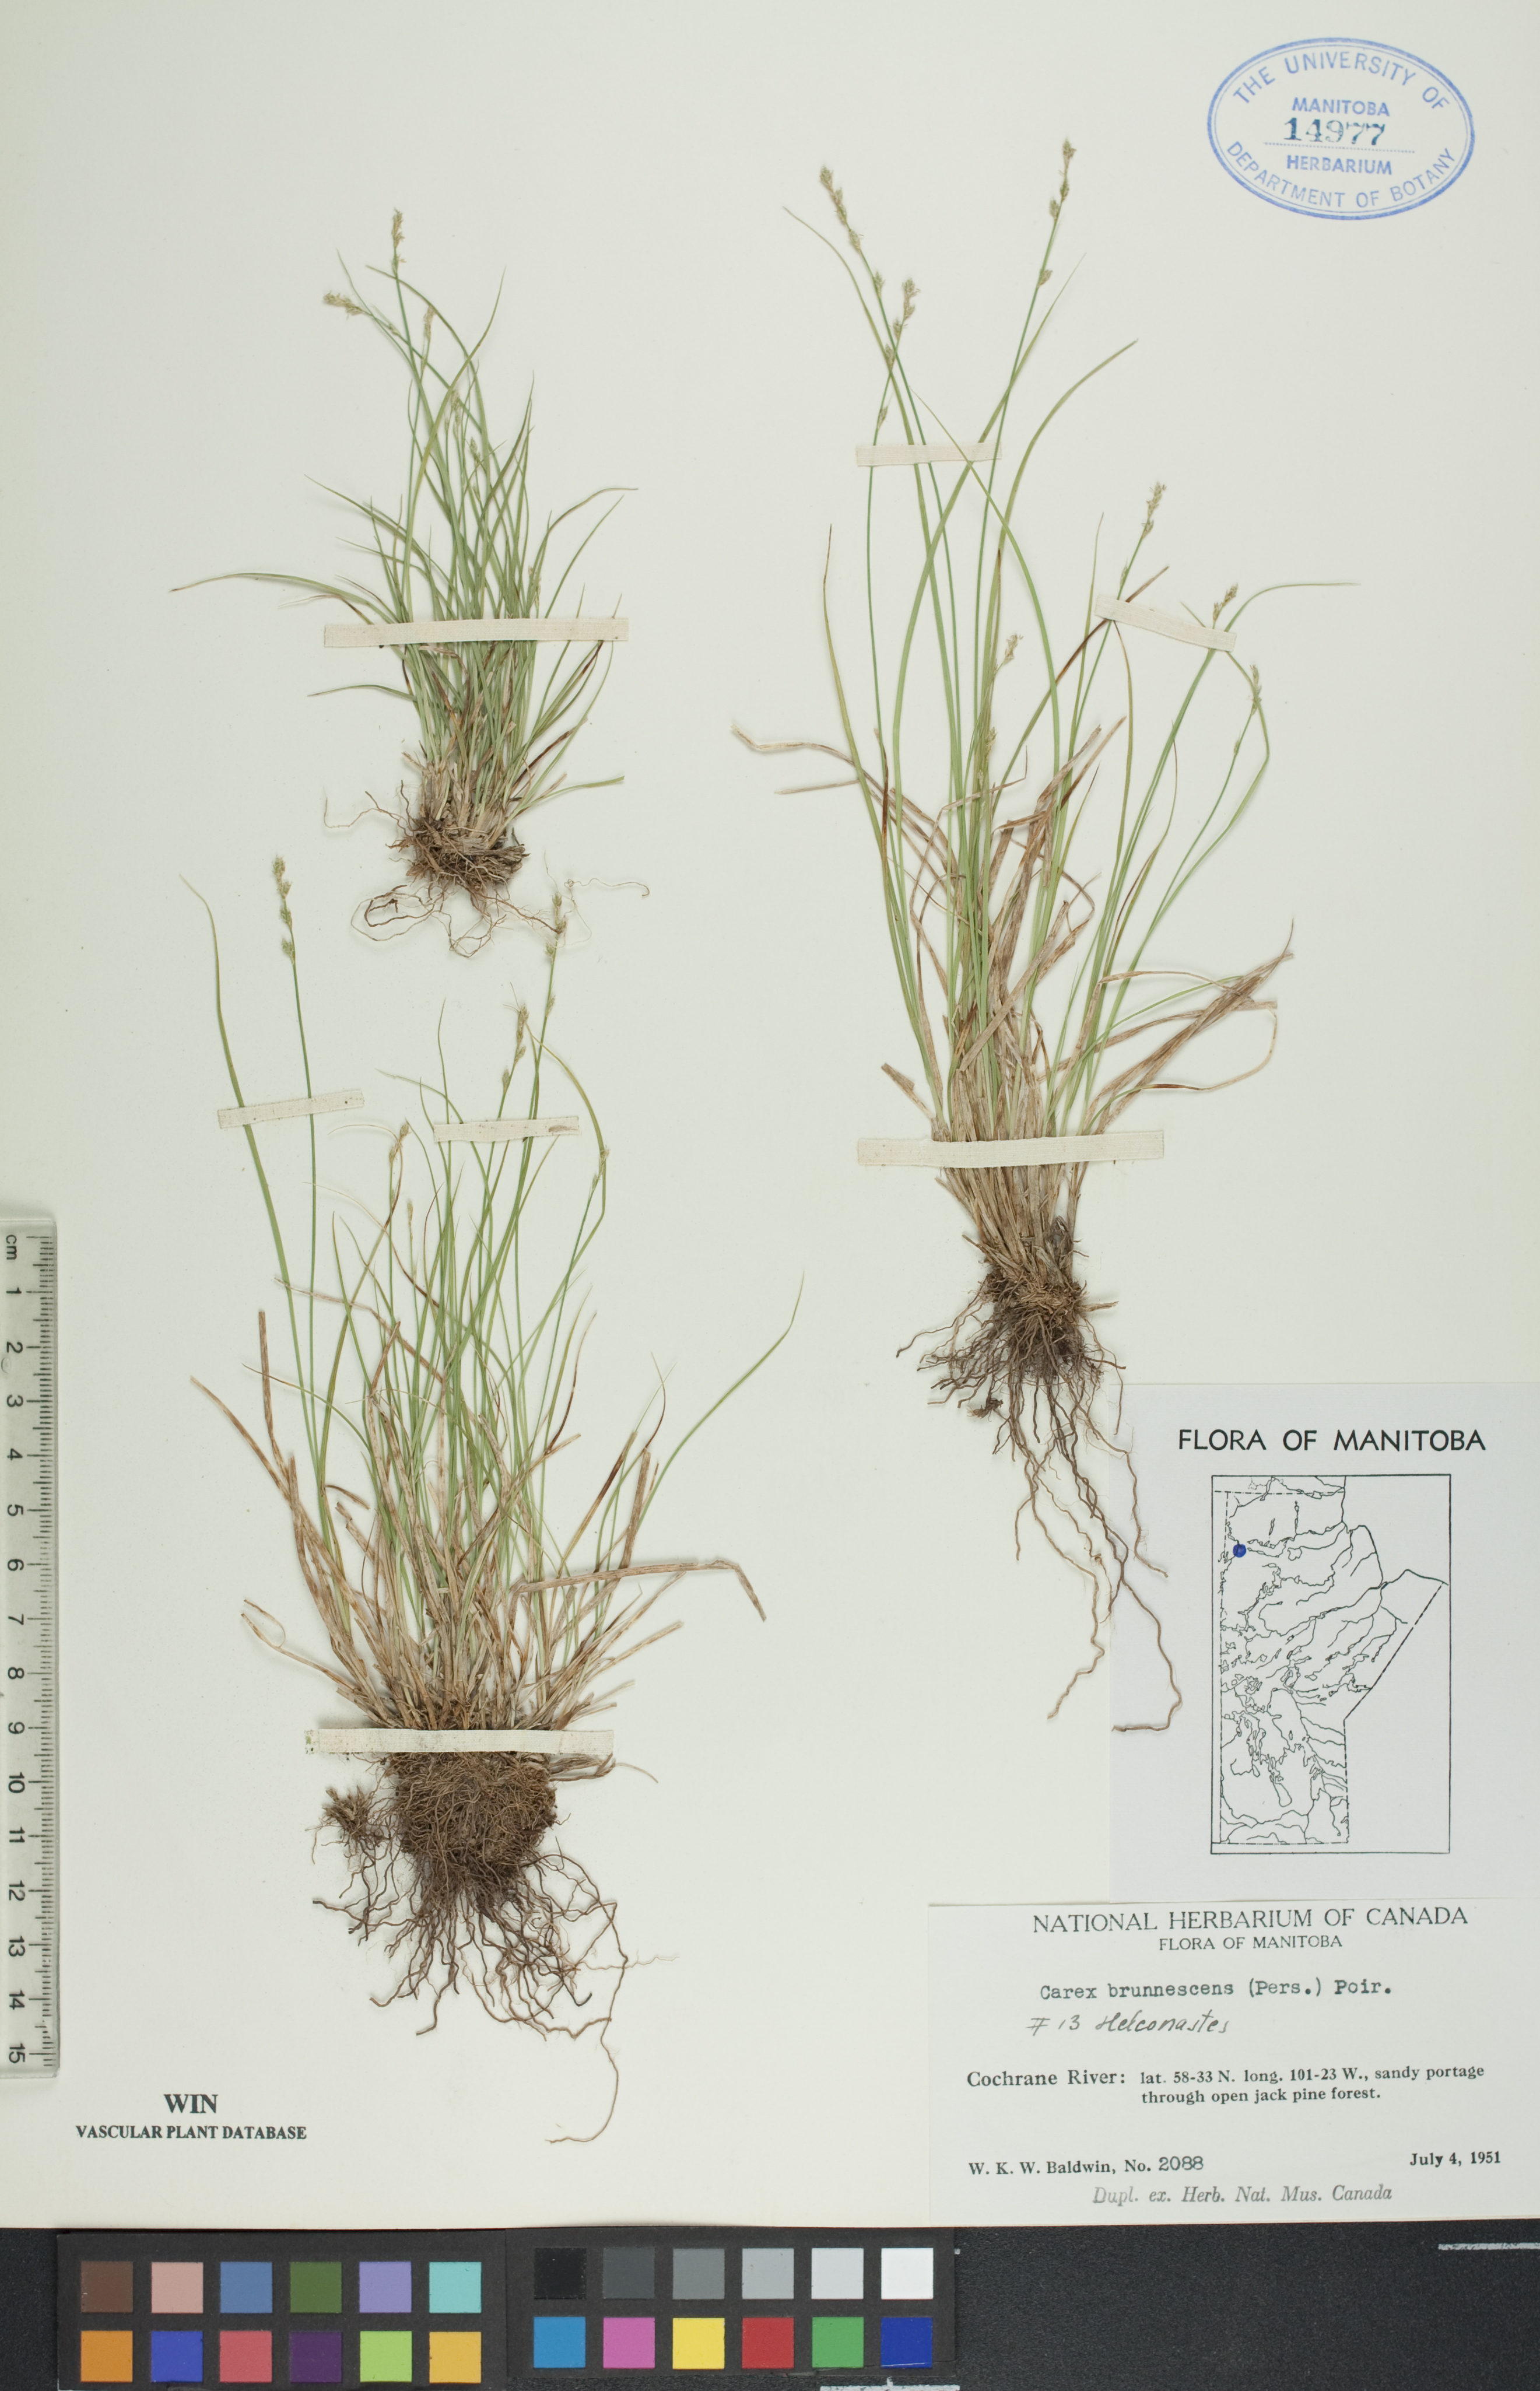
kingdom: Plantae
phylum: Tracheophyta
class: Liliopsida
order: Poales
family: Cyperaceae
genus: Carex
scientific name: Carex brunnescens
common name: Brown sedge
